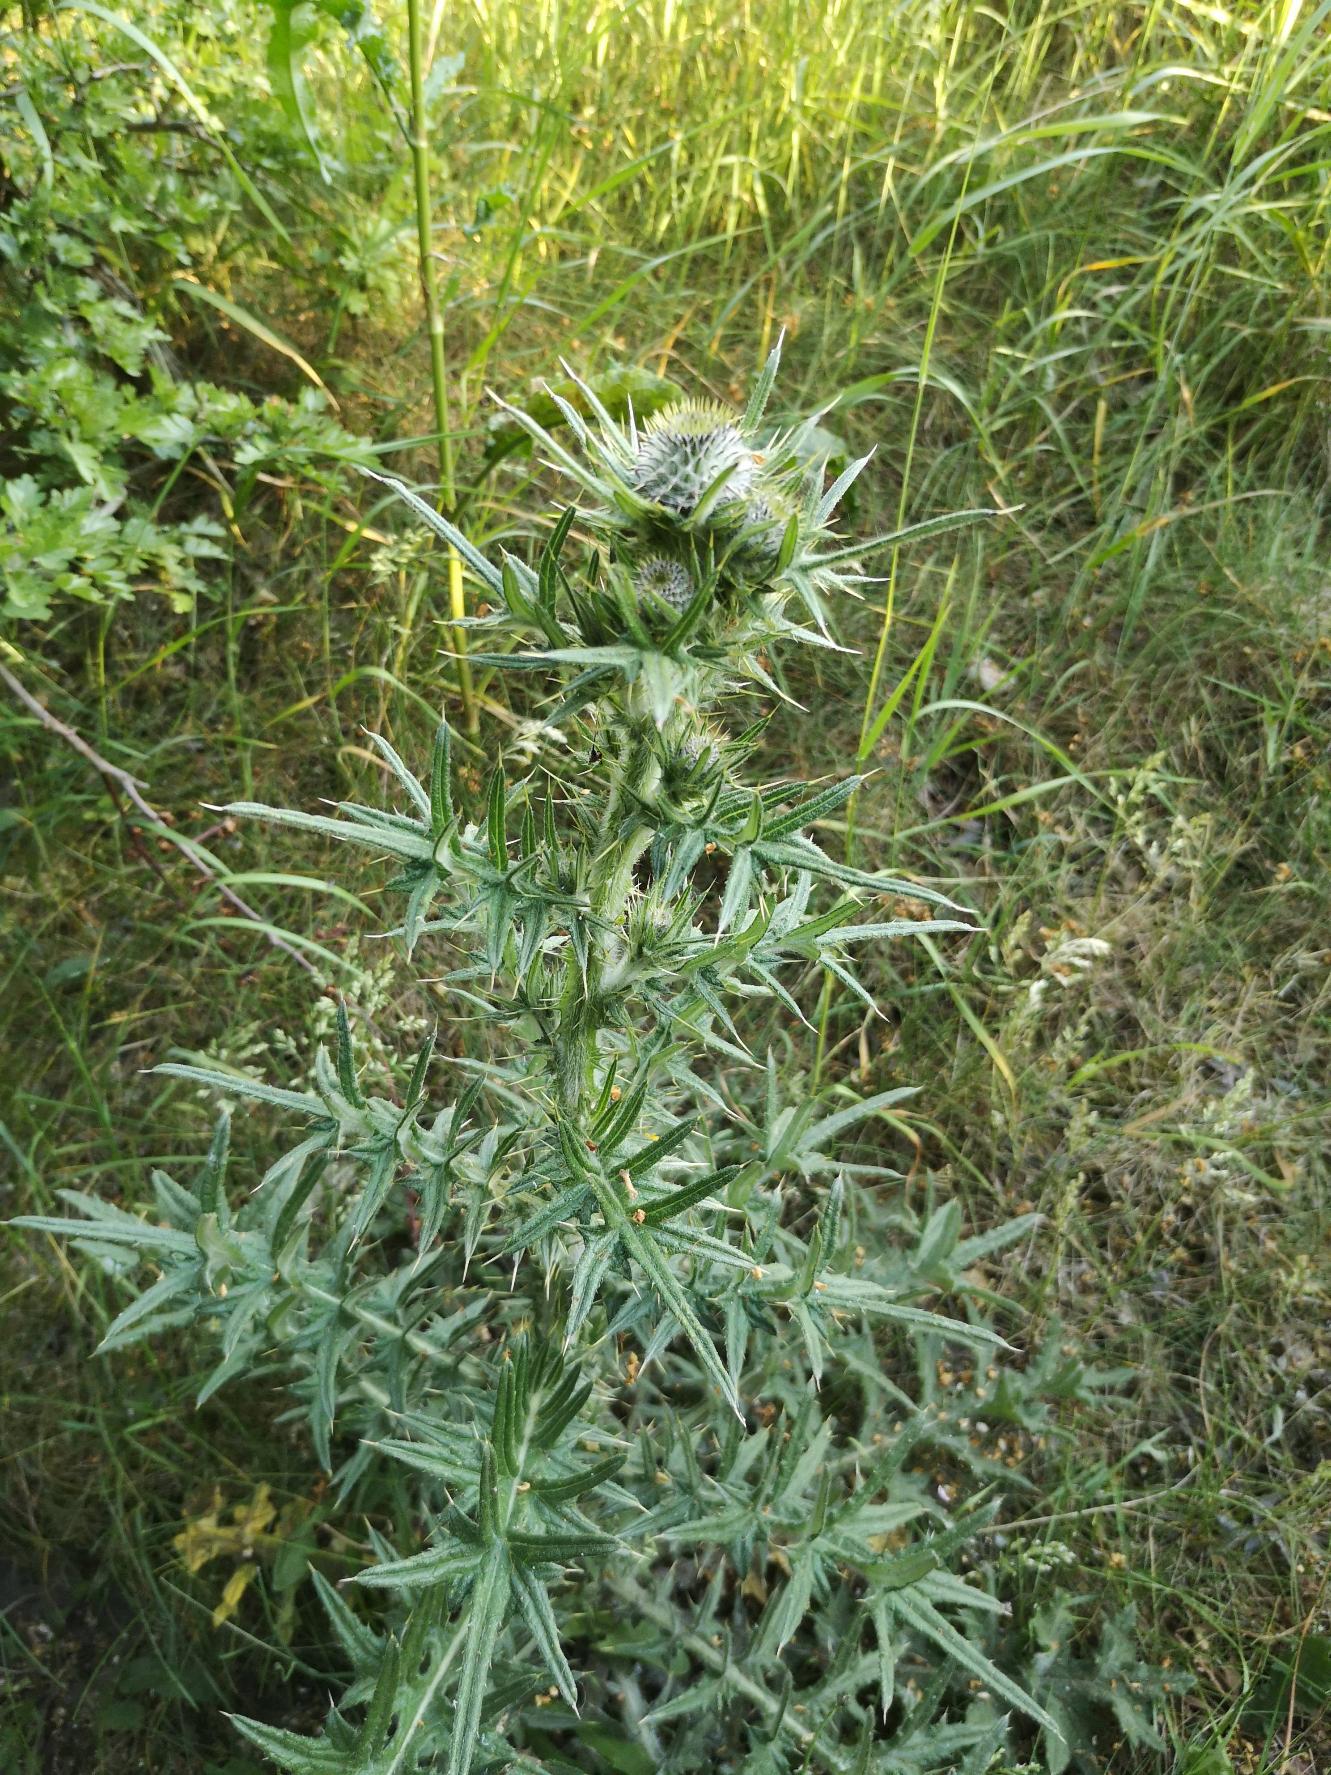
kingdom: Plantae
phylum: Tracheophyta
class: Magnoliopsida
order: Asterales
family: Asteraceae
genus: Cirsium
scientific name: Cirsium vulgare
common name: Horse-tidsel
